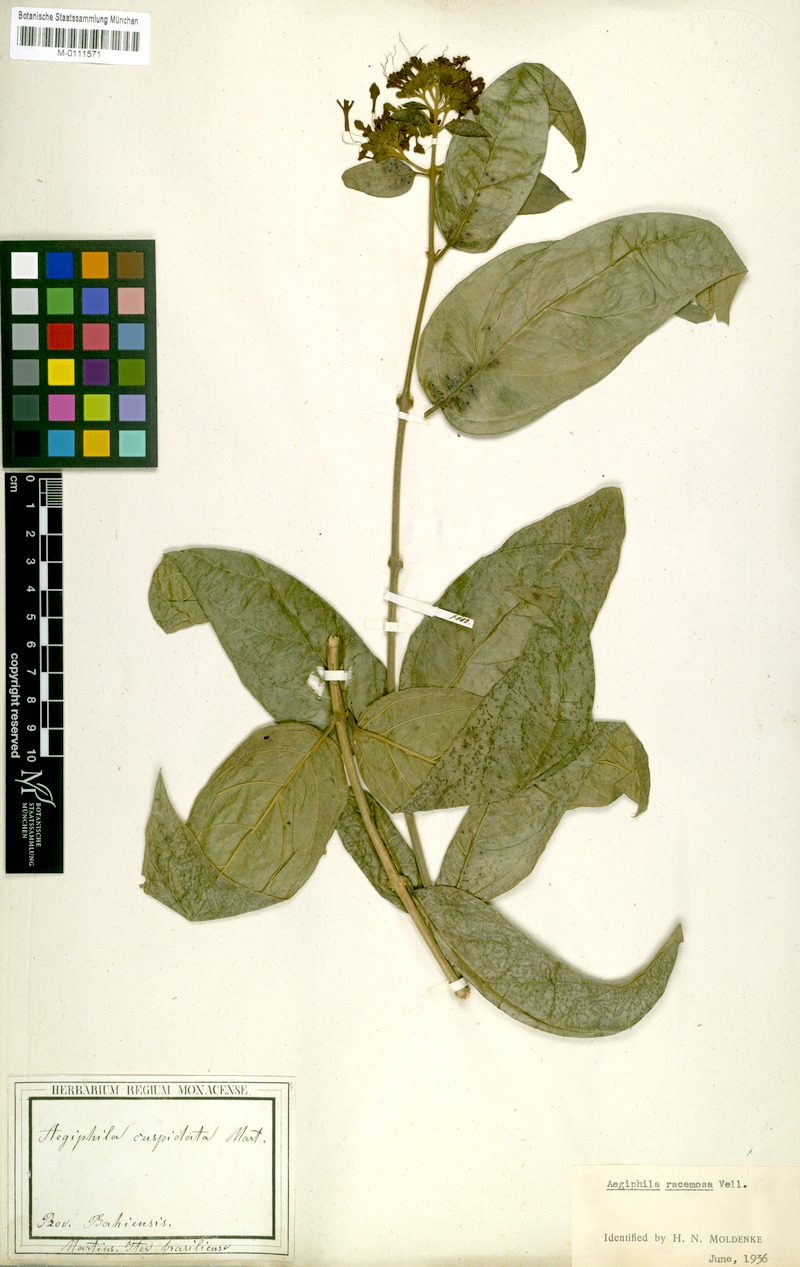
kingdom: Plantae
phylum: Tracheophyta
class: Magnoliopsida
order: Lamiales
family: Lamiaceae
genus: Aegiphila
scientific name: Aegiphila vitelliniflora
